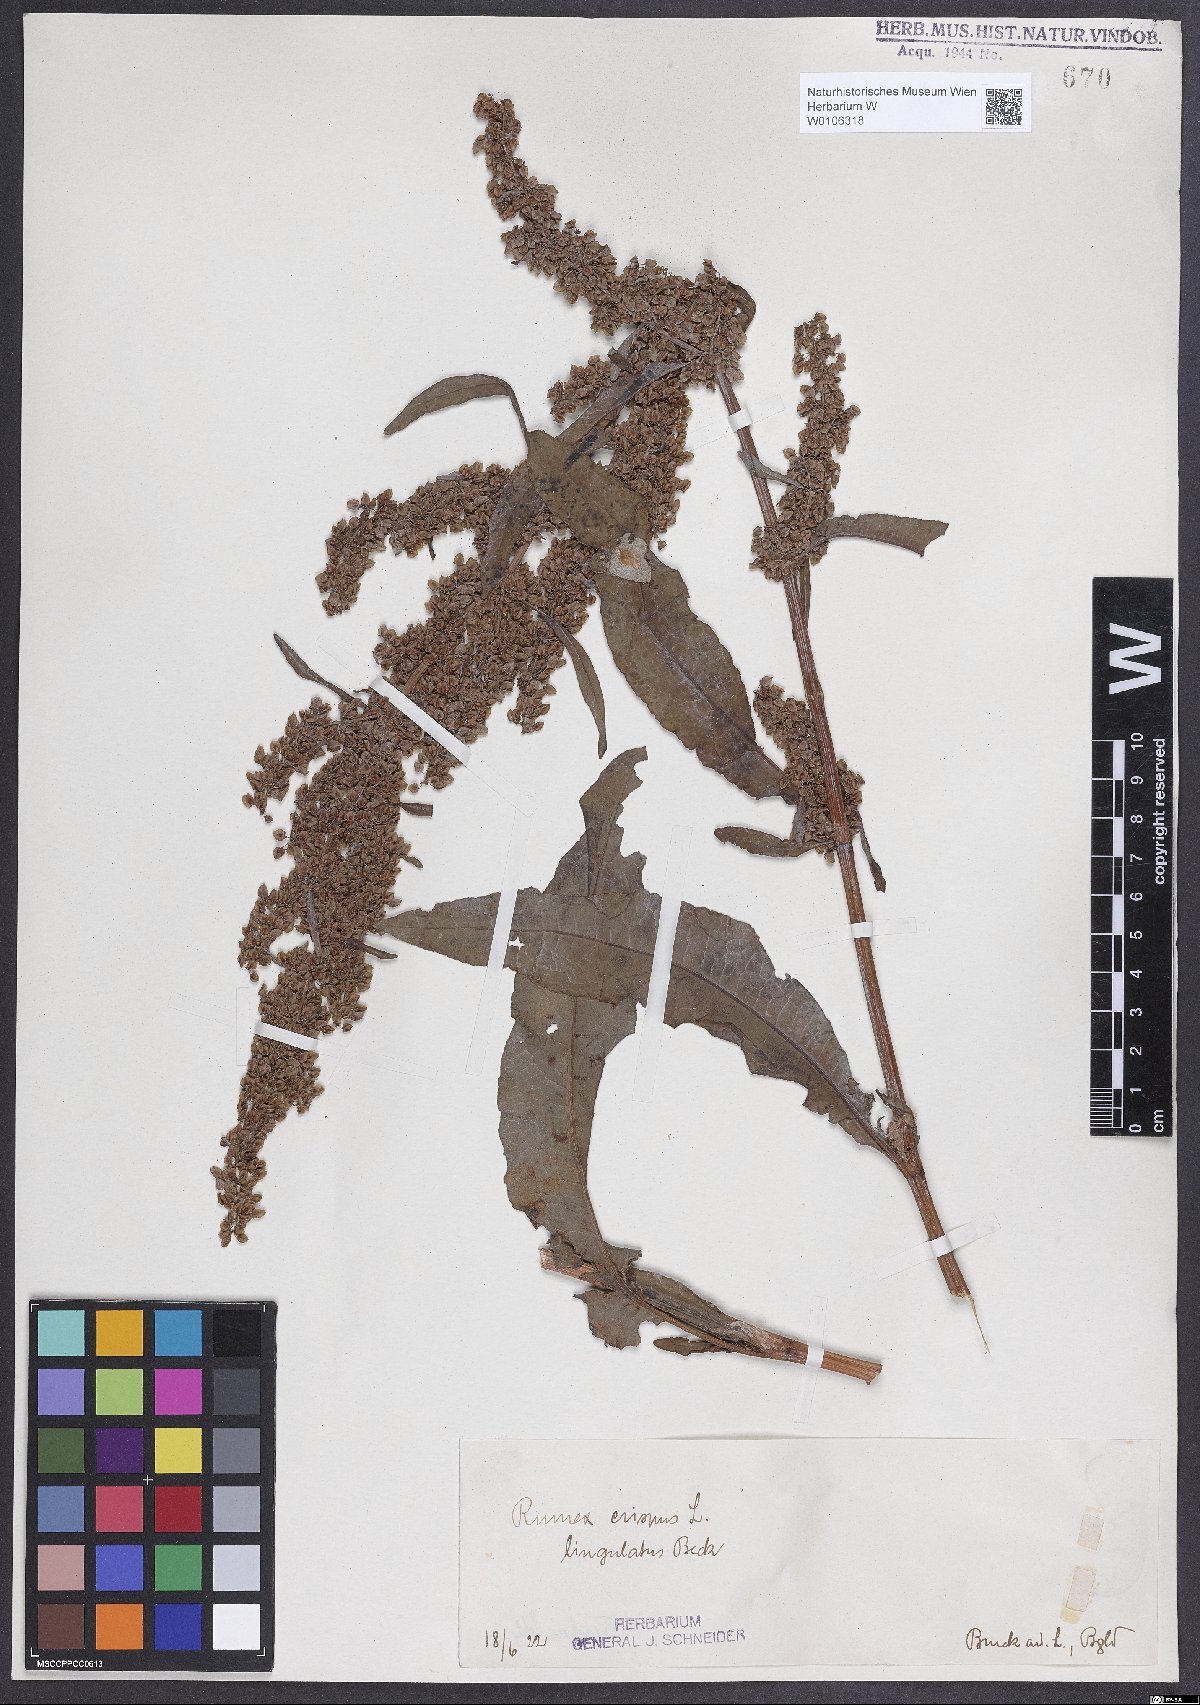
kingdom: Plantae
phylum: Tracheophyta
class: Magnoliopsida
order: Caryophyllales
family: Polygonaceae
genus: Rumex
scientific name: Rumex crispus
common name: Curled dock
